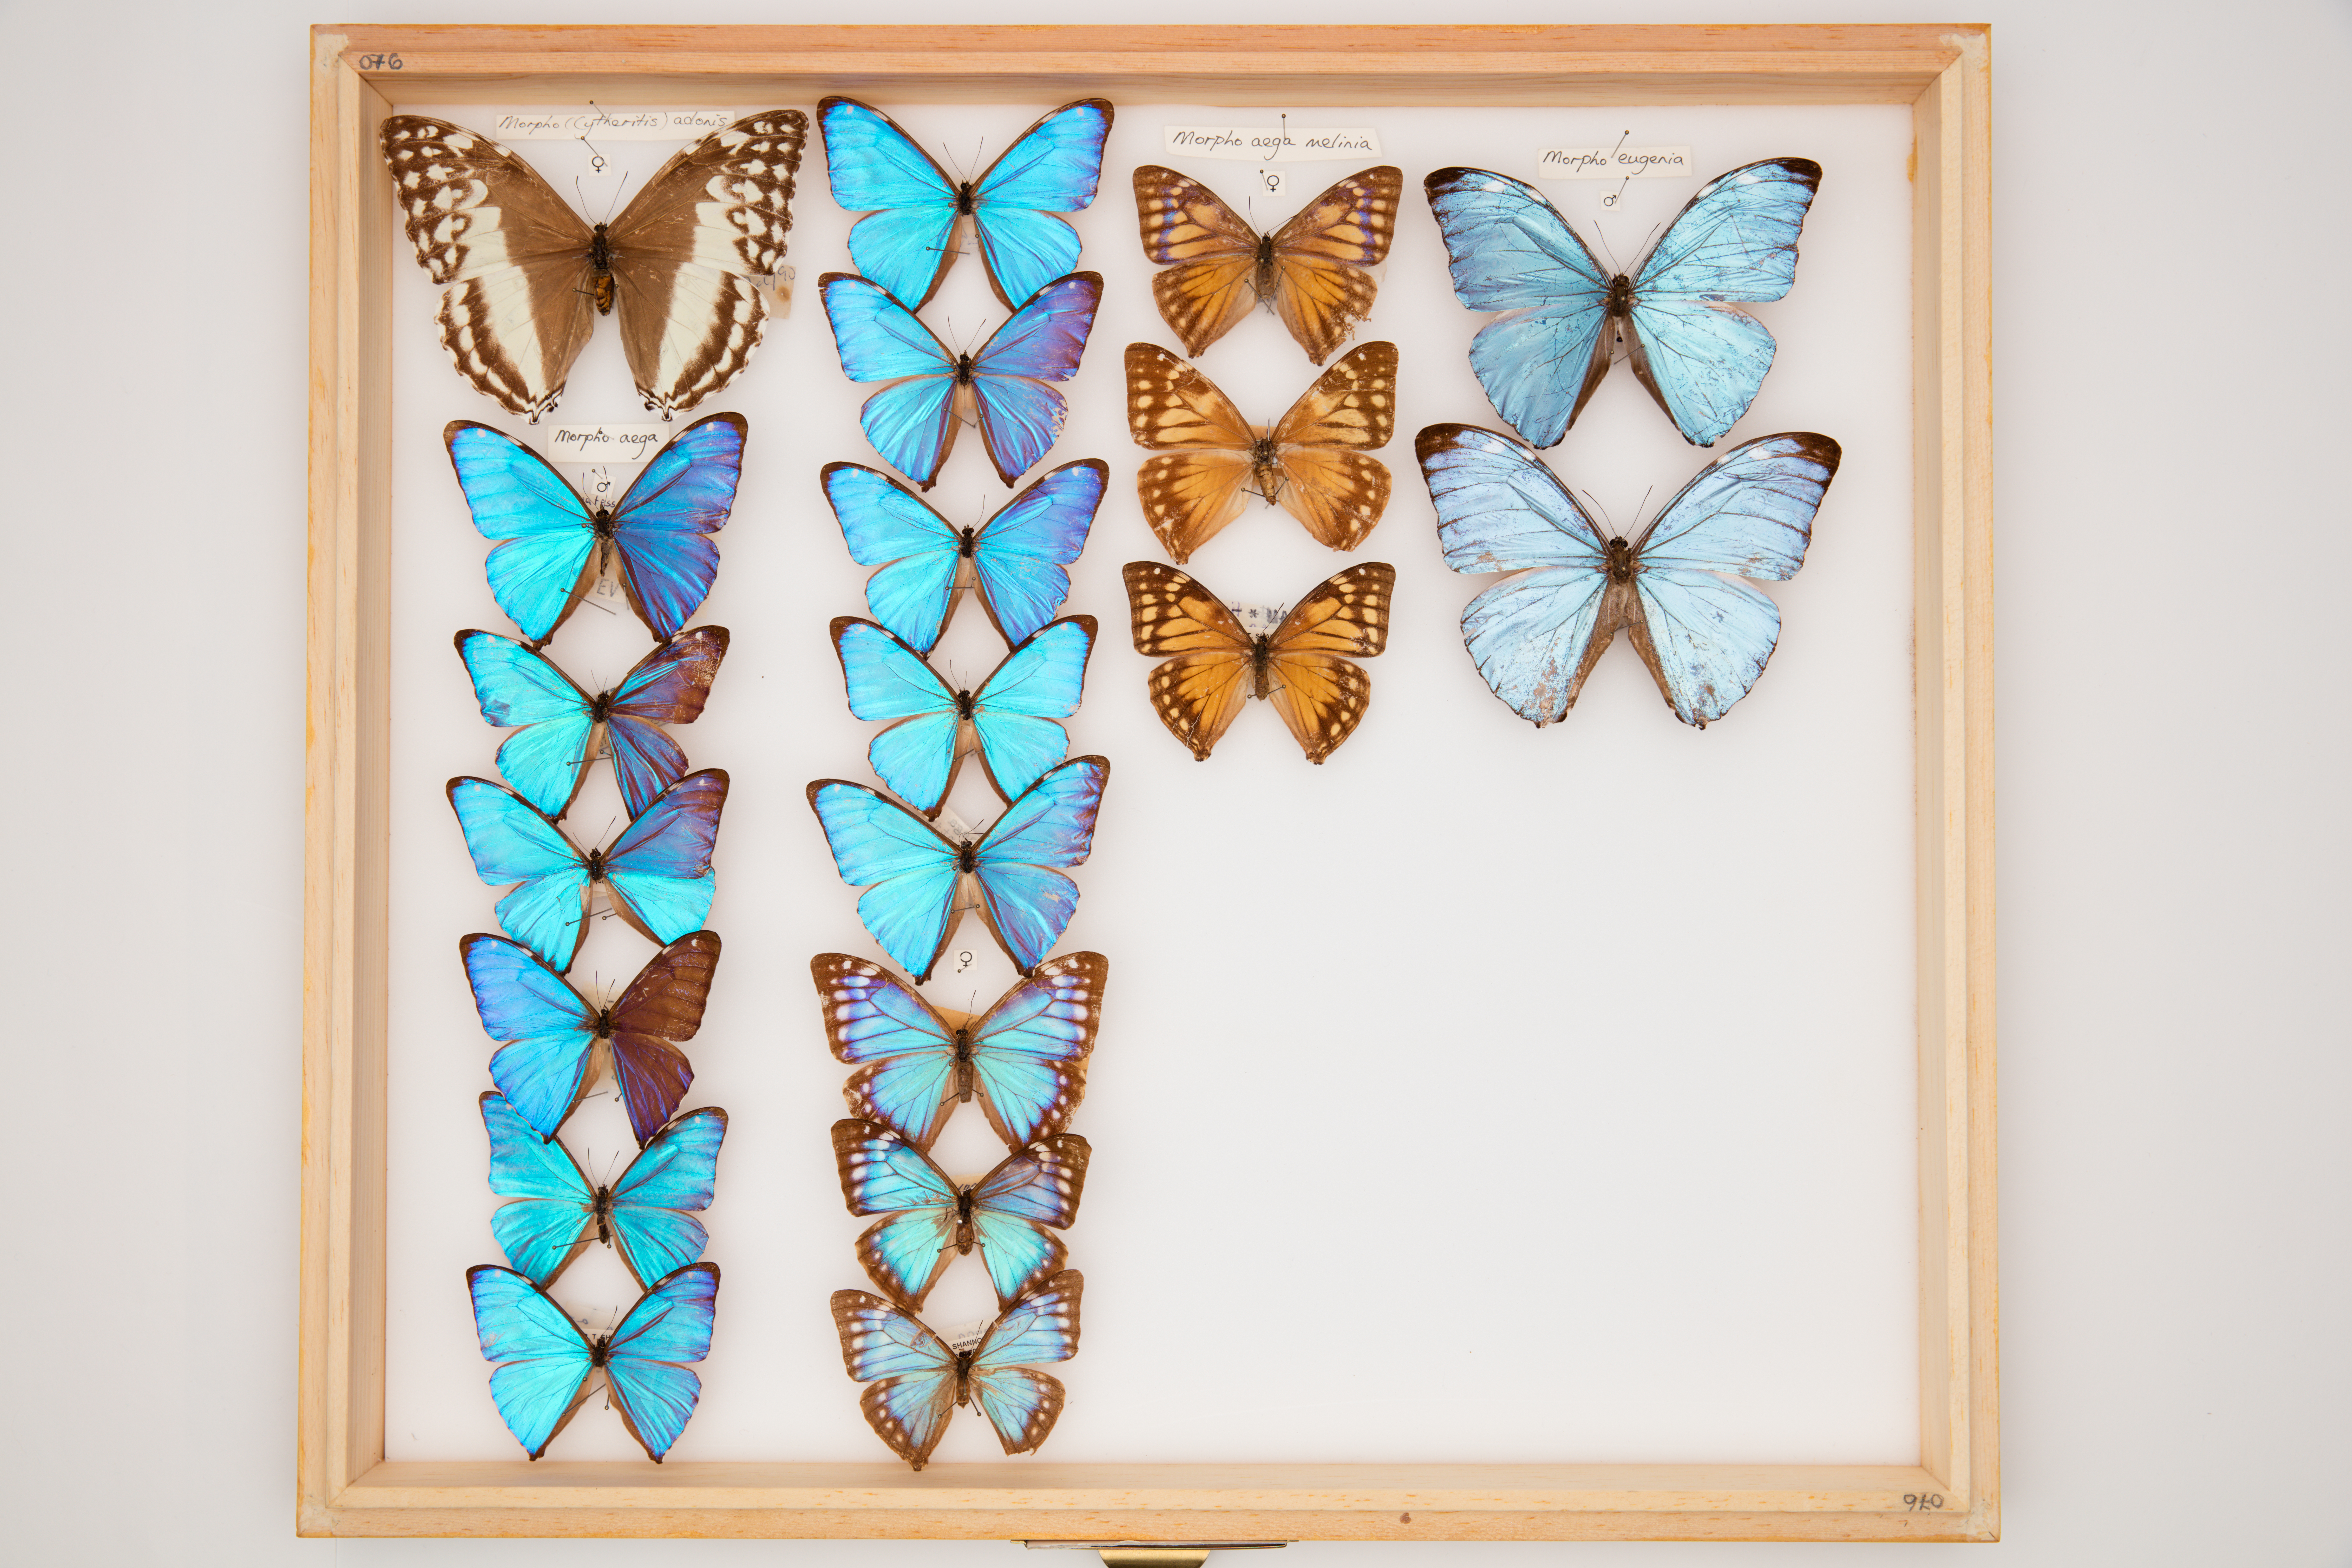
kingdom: Animalia
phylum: Arthropoda
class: Insecta
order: Lepidoptera
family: Nymphalidae
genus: Morpho
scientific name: Morpho aega
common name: Aega morpho
